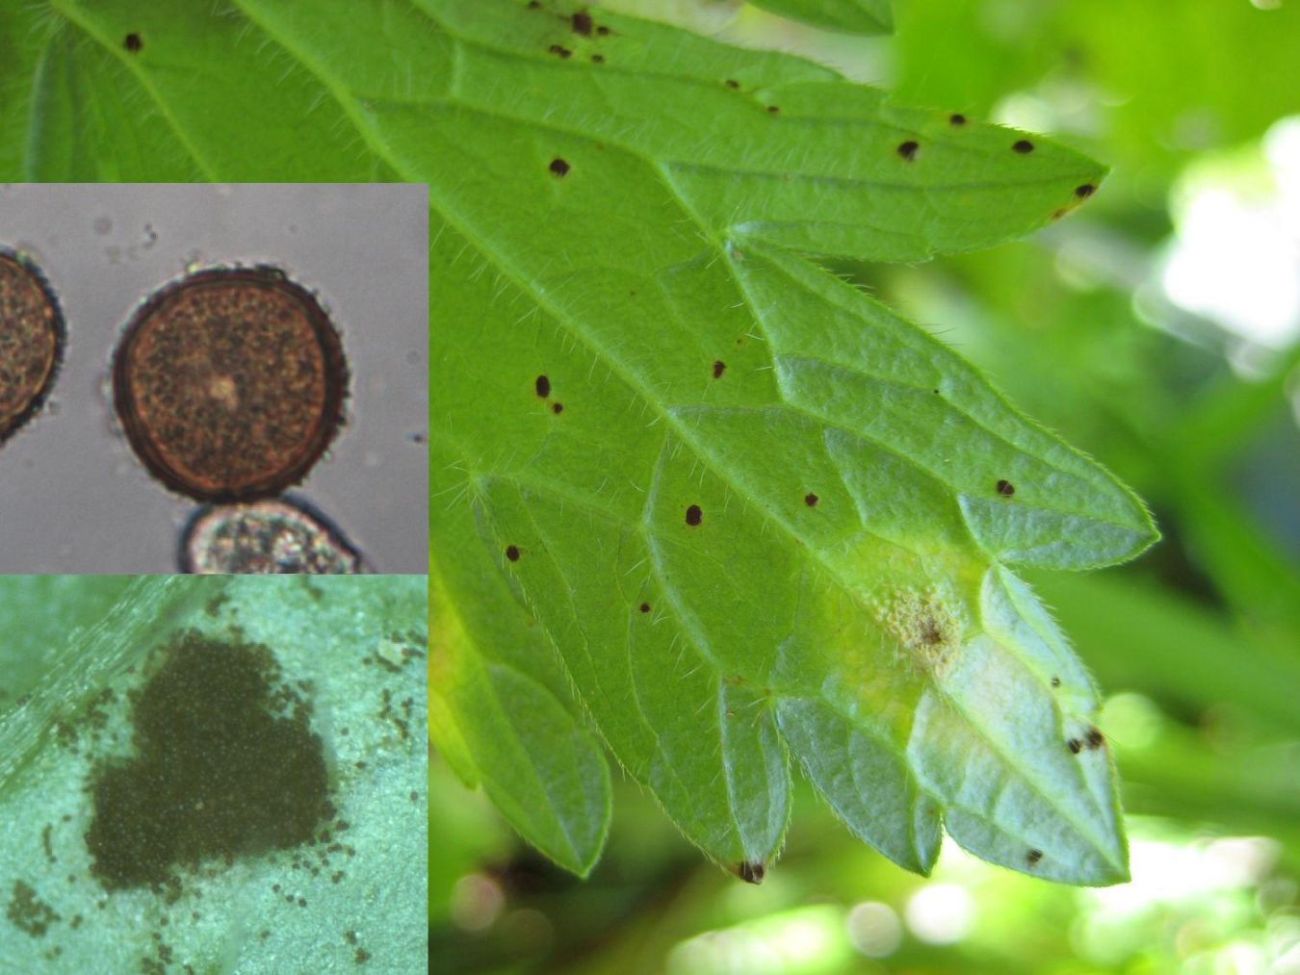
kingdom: Fungi
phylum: Basidiomycota
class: Pucciniomycetes
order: Pucciniales
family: Pucciniaceae
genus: Uromyces
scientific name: Uromyces geranii
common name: Geranium rust
